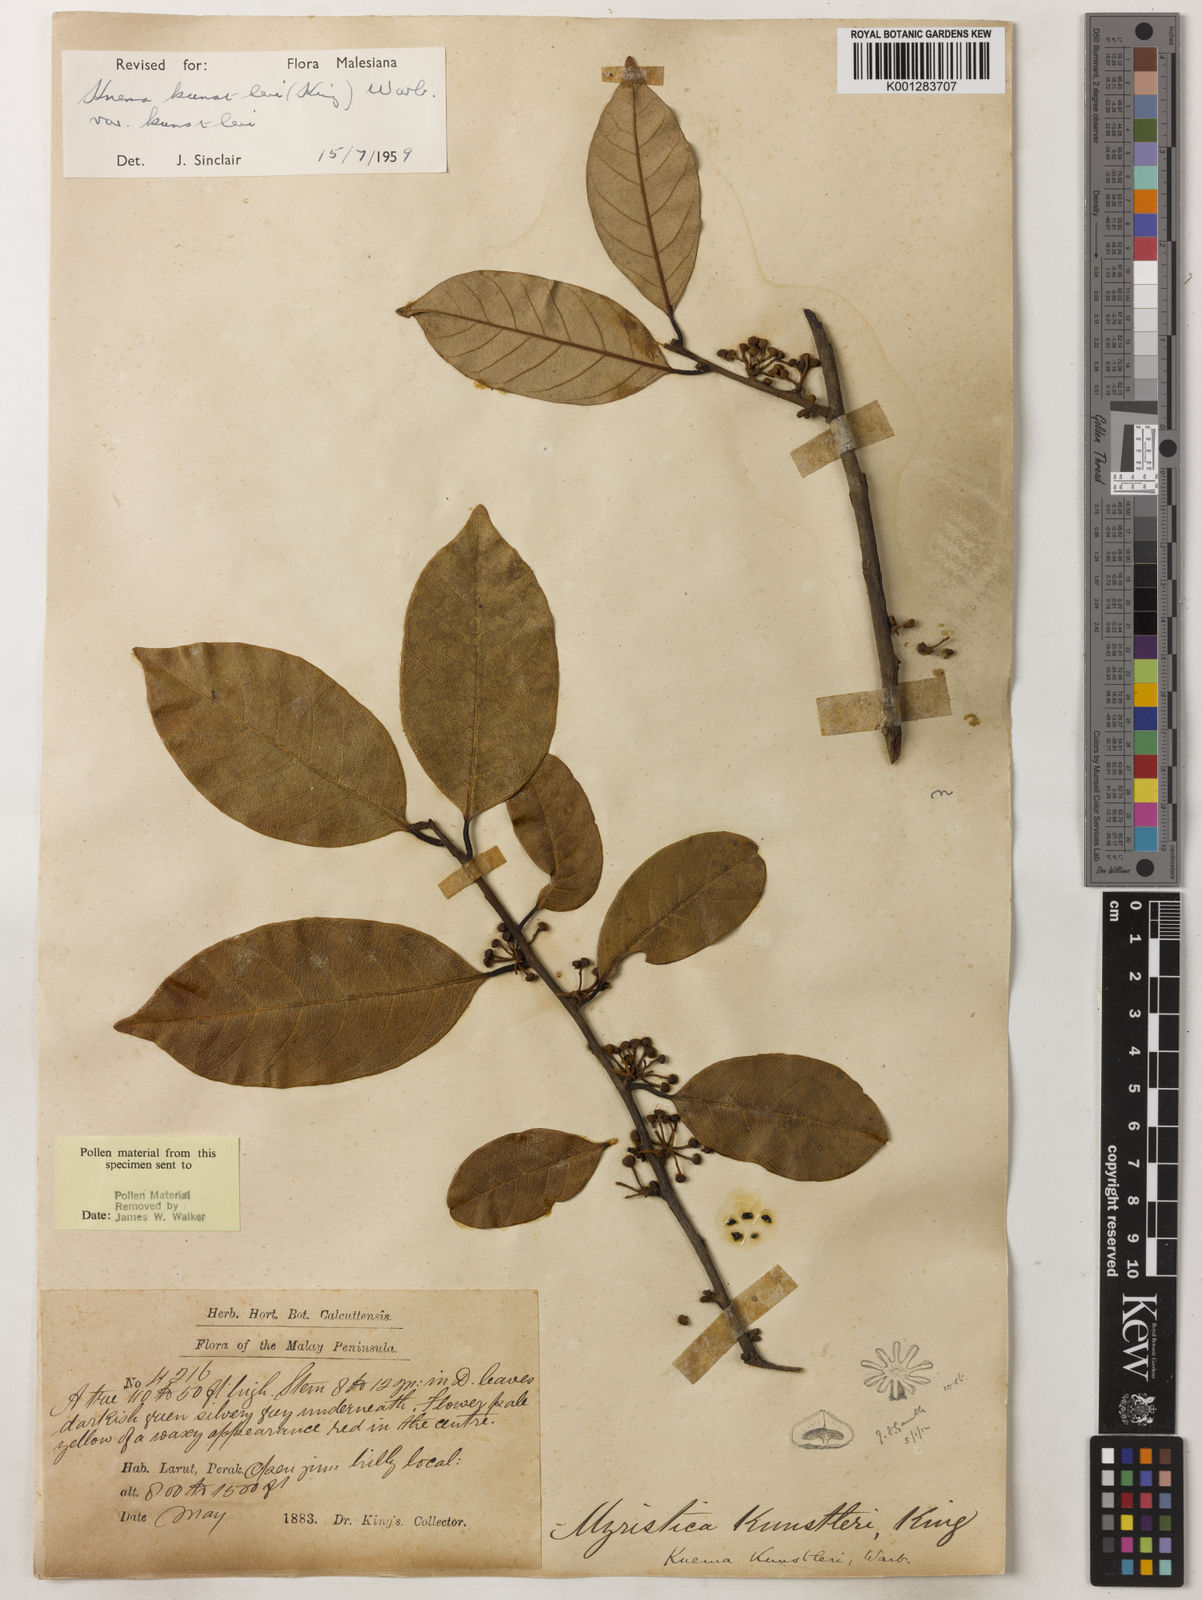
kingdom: Plantae
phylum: Tracheophyta
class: Magnoliopsida
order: Magnoliales
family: Myristicaceae
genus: Knema
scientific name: Knema kunstleri
